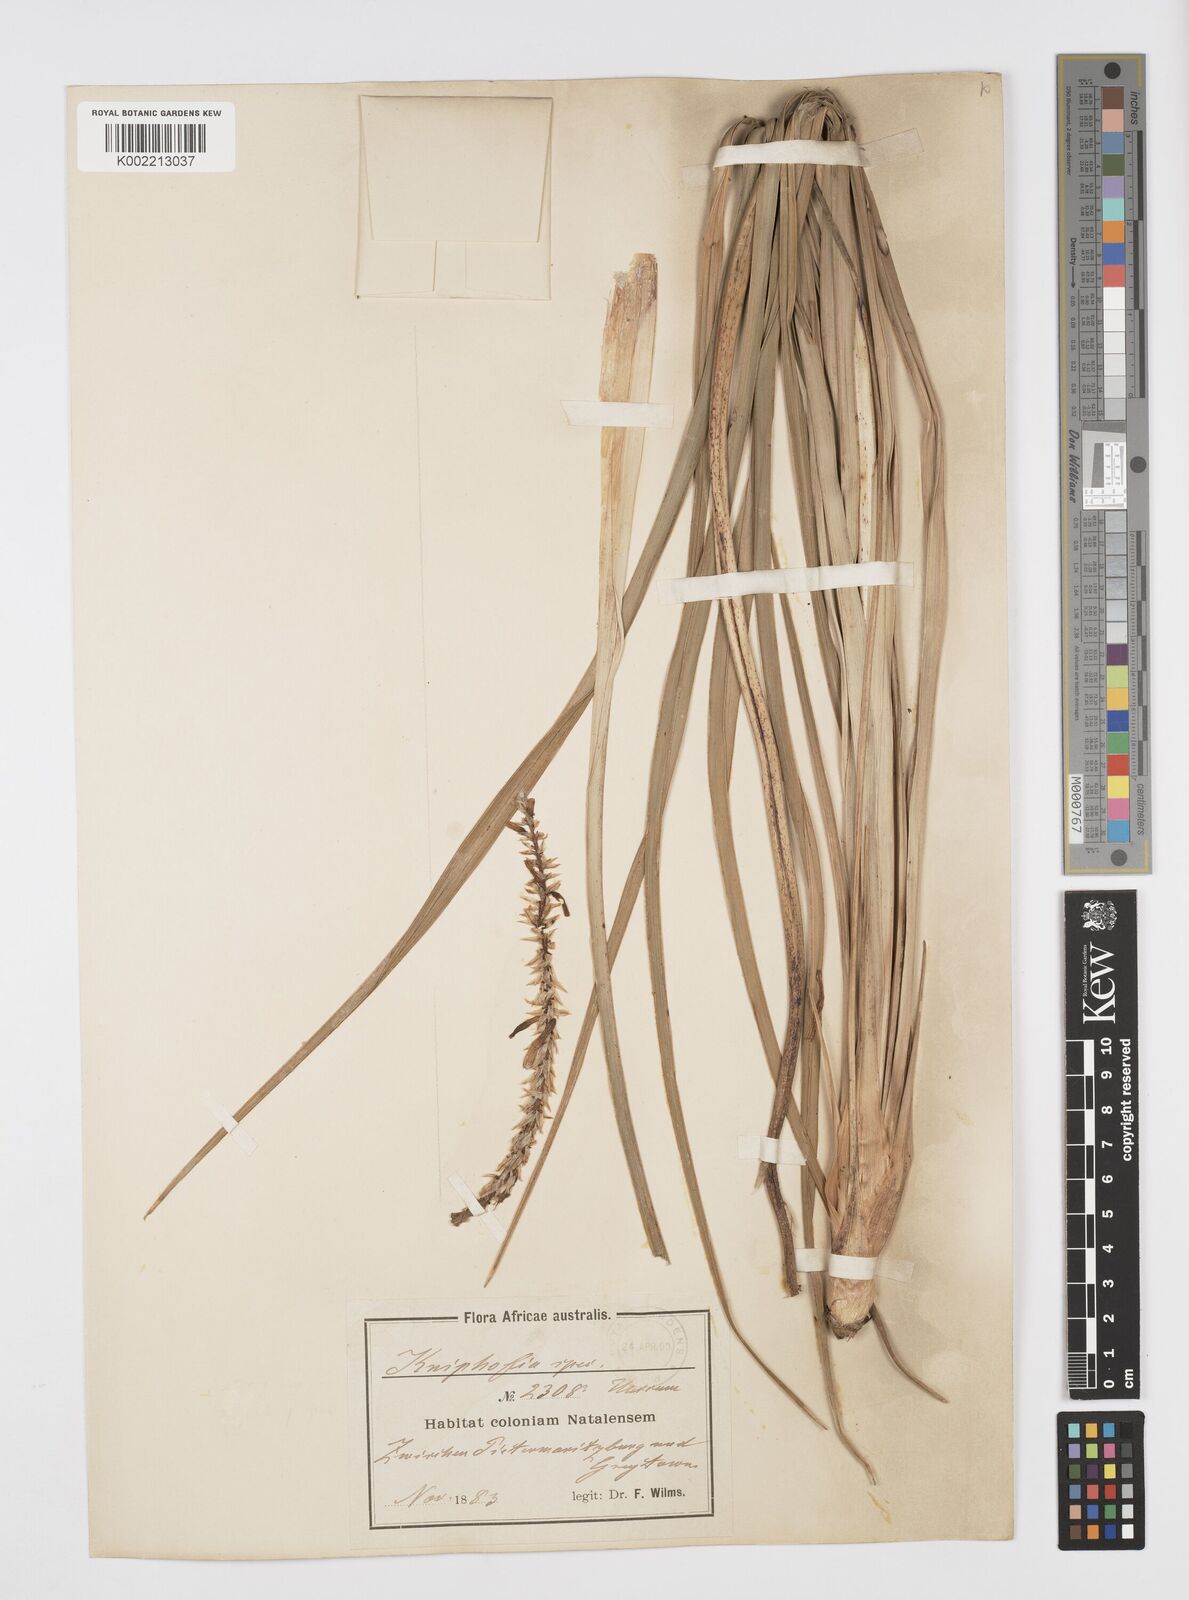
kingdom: Plantae
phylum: Tracheophyta
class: Liliopsida
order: Asparagales
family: Asphodelaceae
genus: Kniphofia
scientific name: Kniphofia
